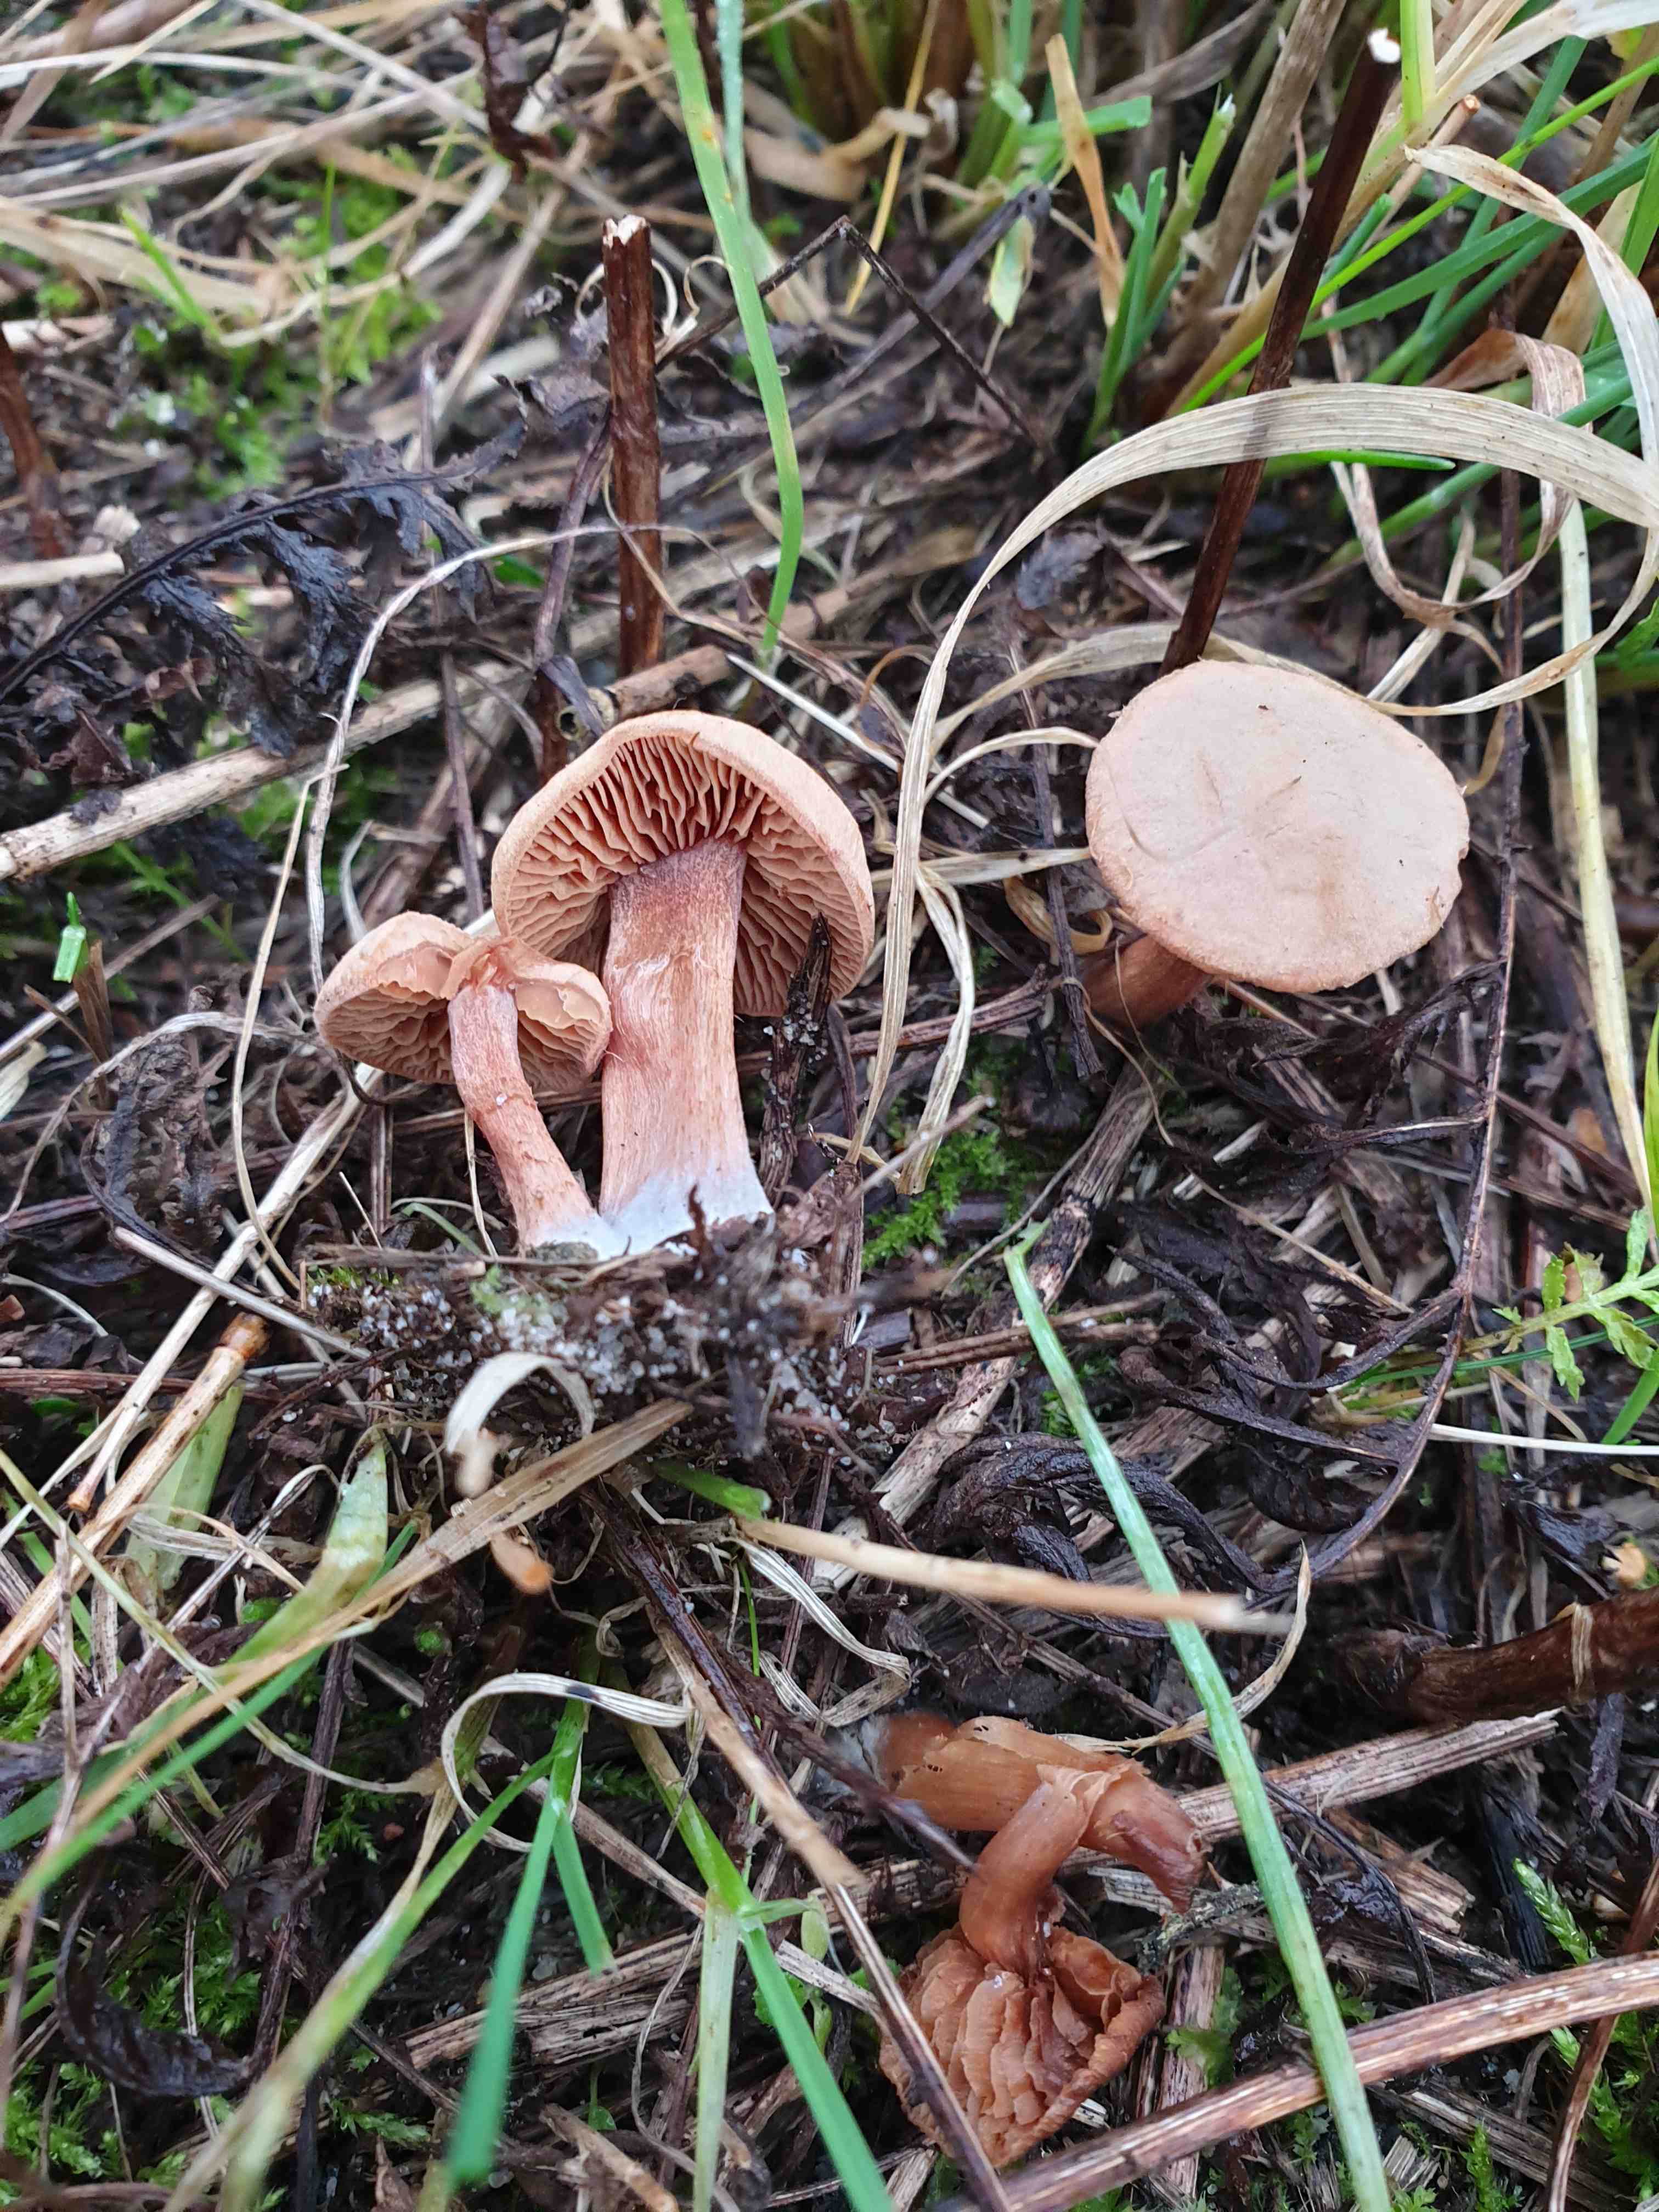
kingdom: Fungi
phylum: Basidiomycota
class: Agaricomycetes
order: Agaricales
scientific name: Agaricales
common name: champignonordenen
